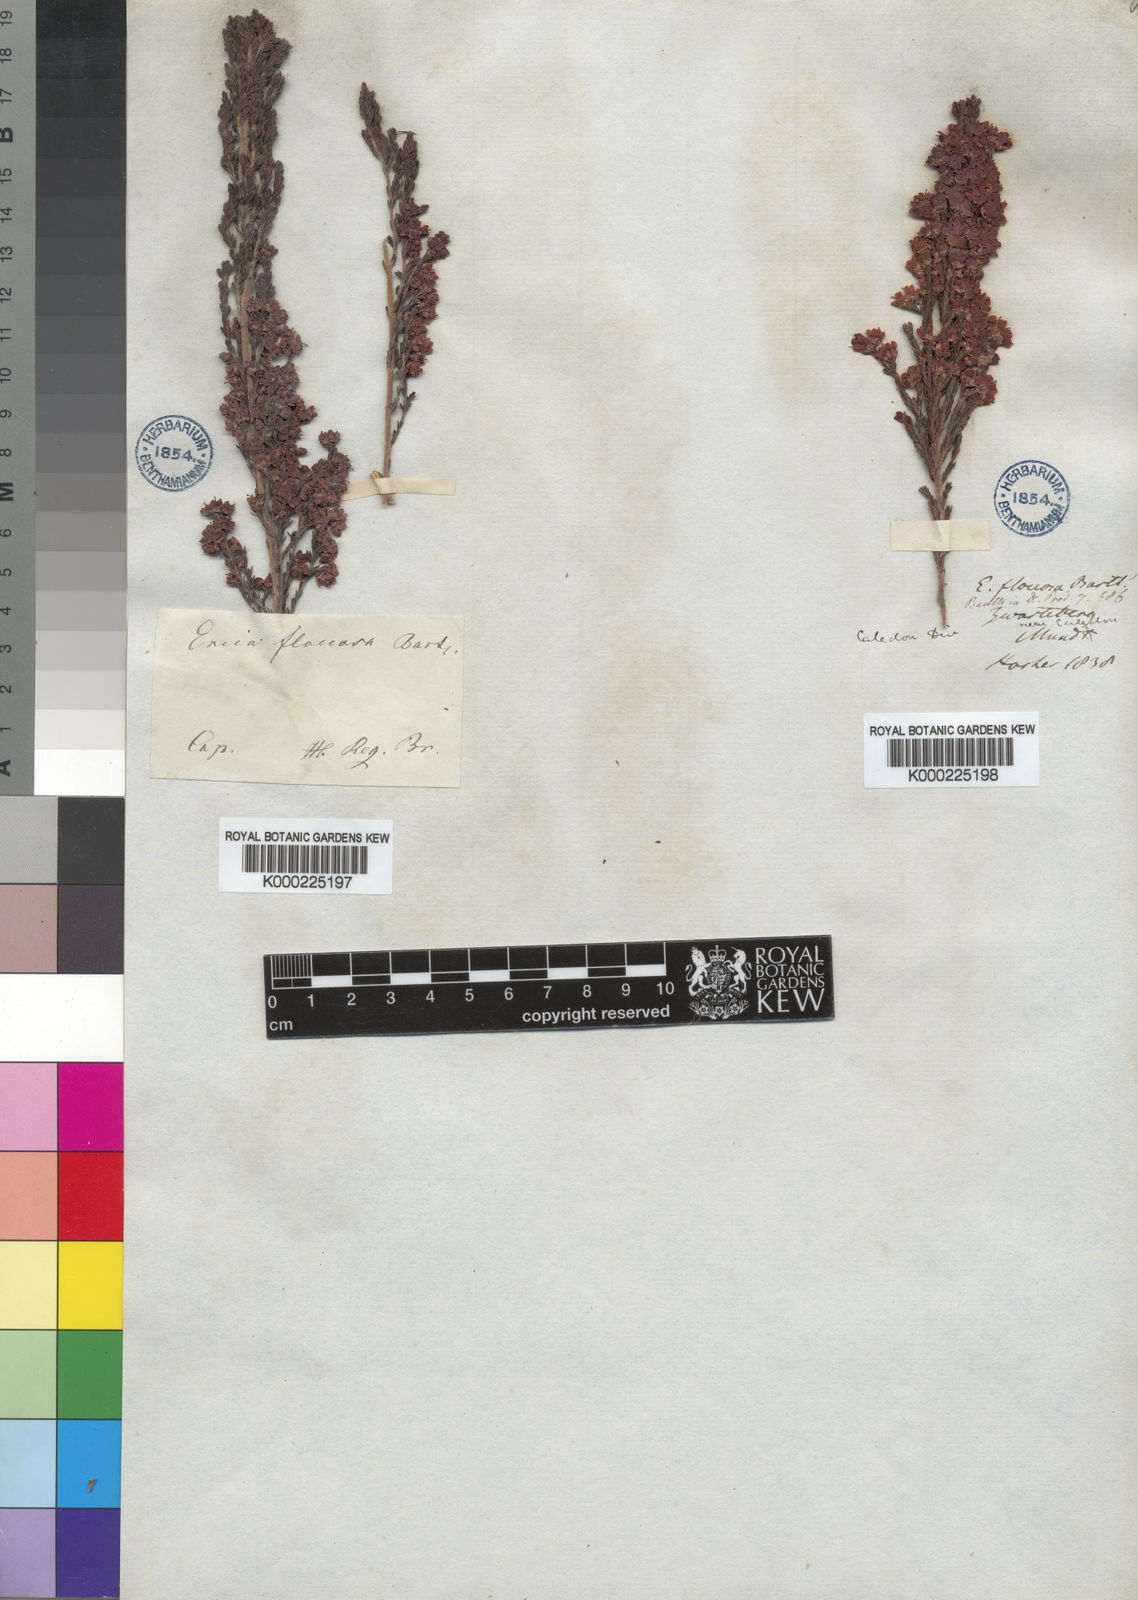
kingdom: Plantae
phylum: Tracheophyta
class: Magnoliopsida
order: Ericales
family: Ericaceae
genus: Erica
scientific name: Erica floccifera
